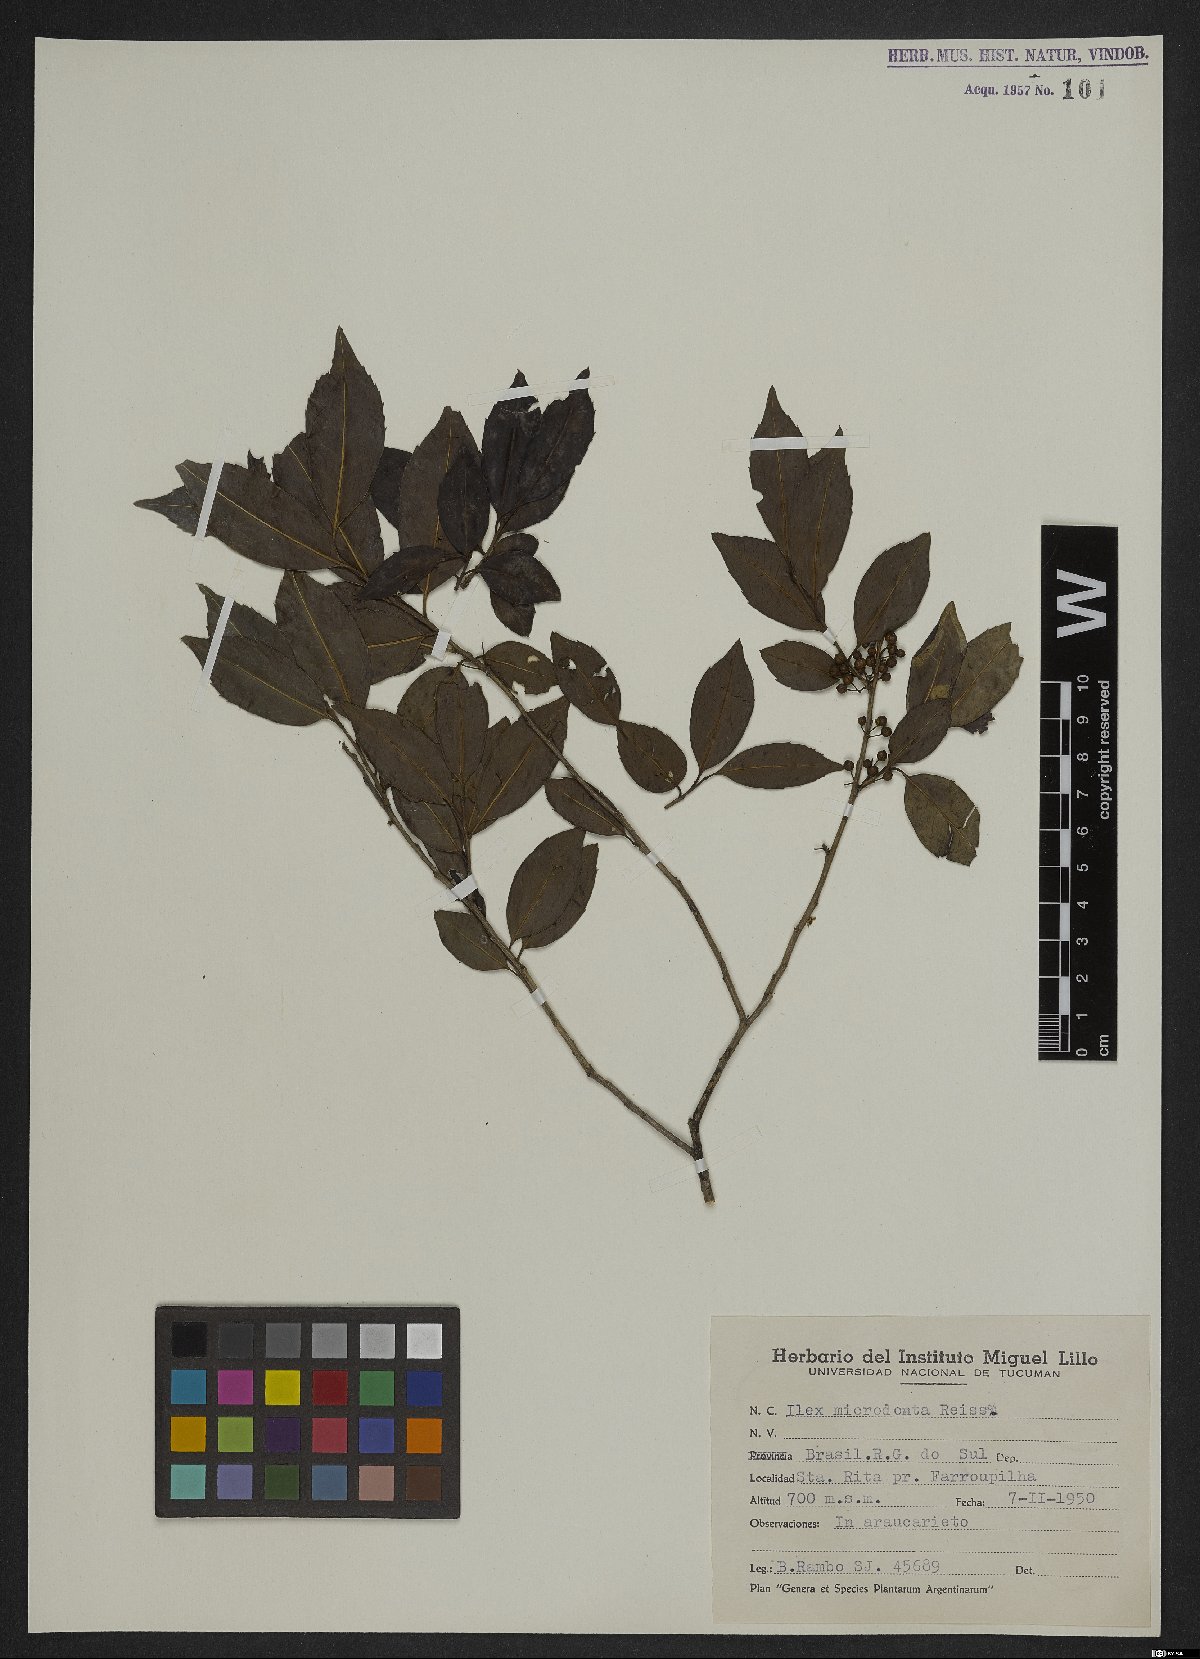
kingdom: Plantae
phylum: Tracheophyta
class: Magnoliopsida
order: Aquifoliales
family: Aquifoliaceae
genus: Ilex
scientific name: Ilex microdonta
